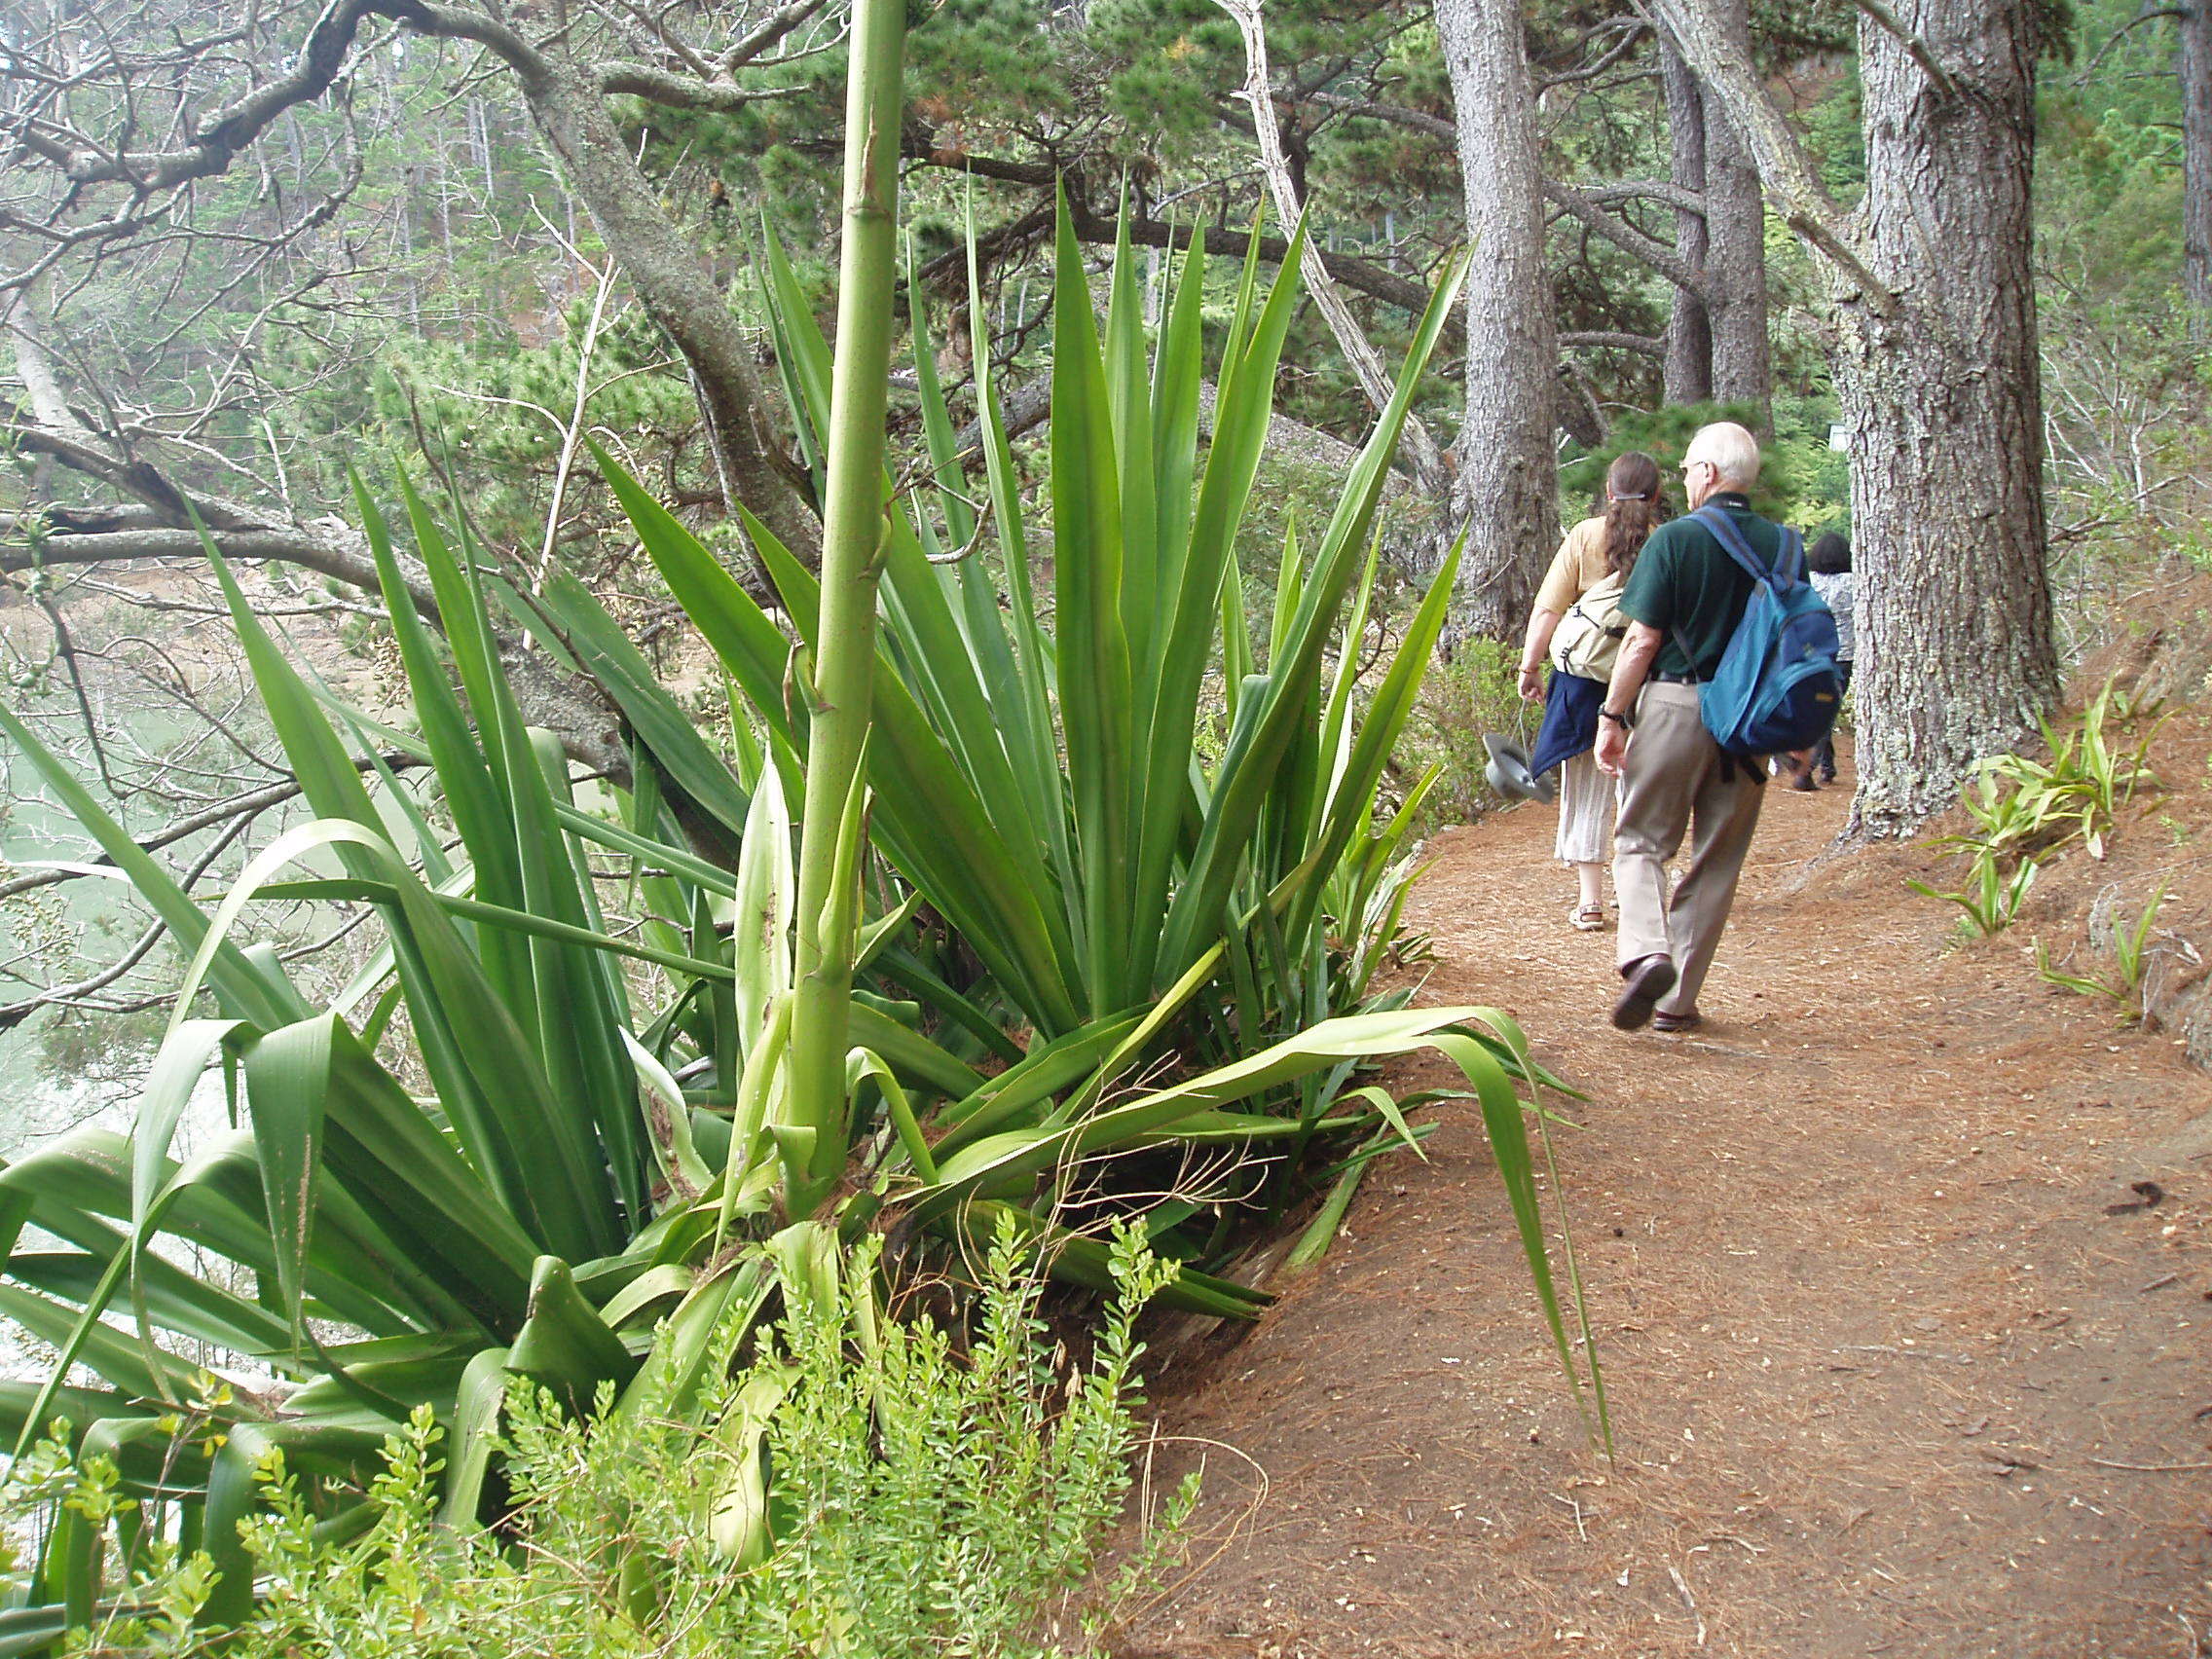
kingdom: Plantae
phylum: Tracheophyta
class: Liliopsida
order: Asparagales
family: Asparagaceae
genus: Furcraea
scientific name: Furcraea foetida
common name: Mauritius hemp
